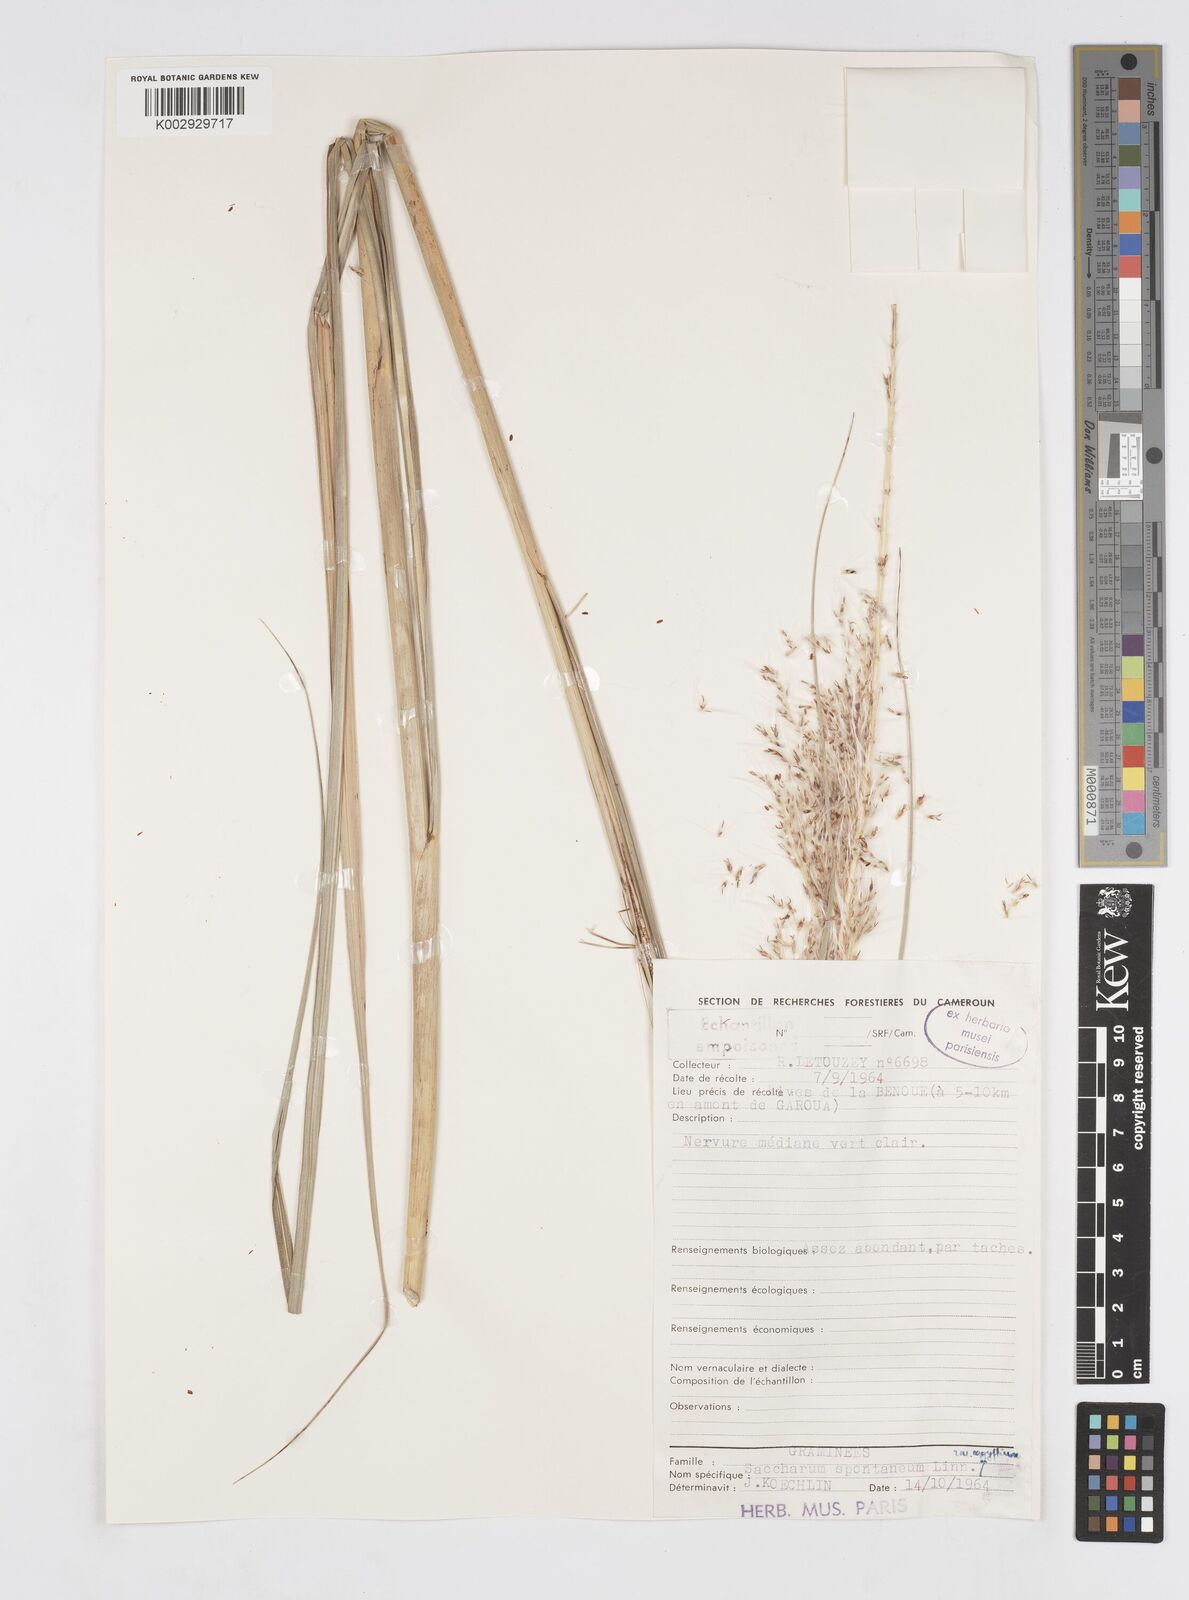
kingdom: Plantae
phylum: Tracheophyta
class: Liliopsida
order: Poales
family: Poaceae
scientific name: Poaceae
